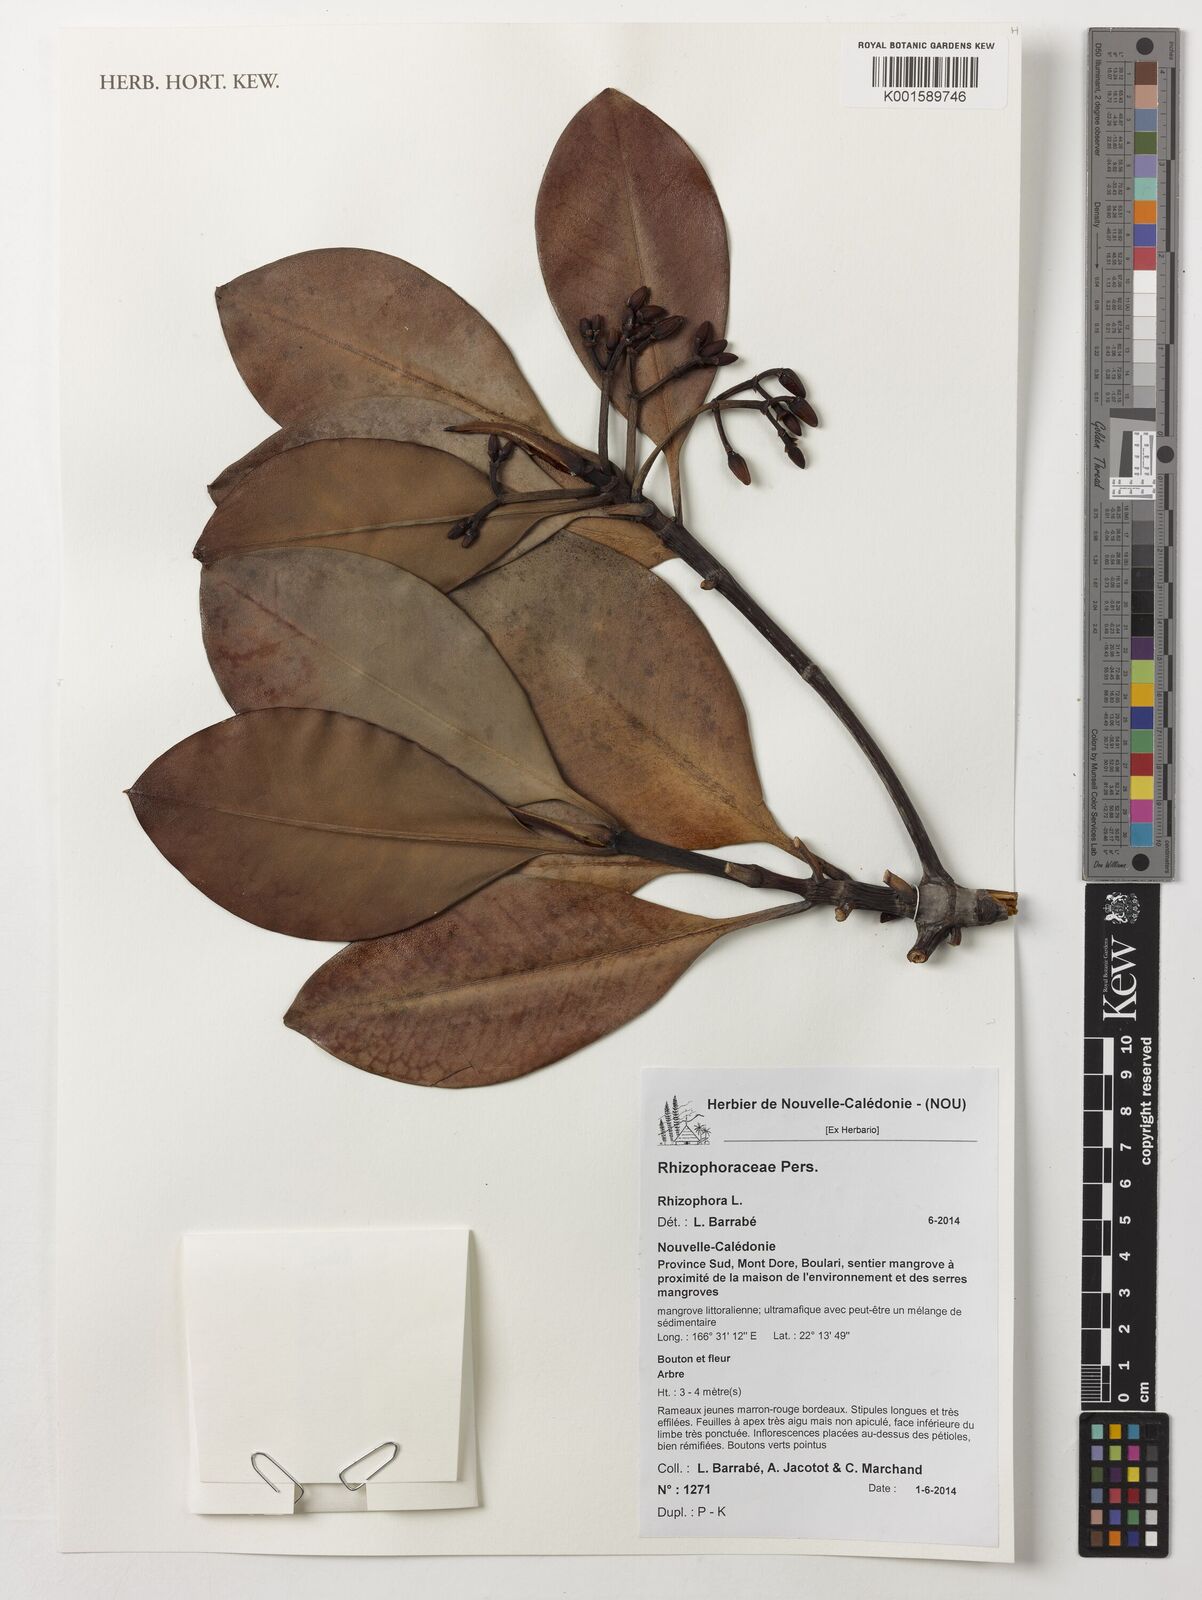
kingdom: Plantae
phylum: Tracheophyta
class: Magnoliopsida
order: Malpighiales
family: Rhizophoraceae
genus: Rhizophora
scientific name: Rhizophora
